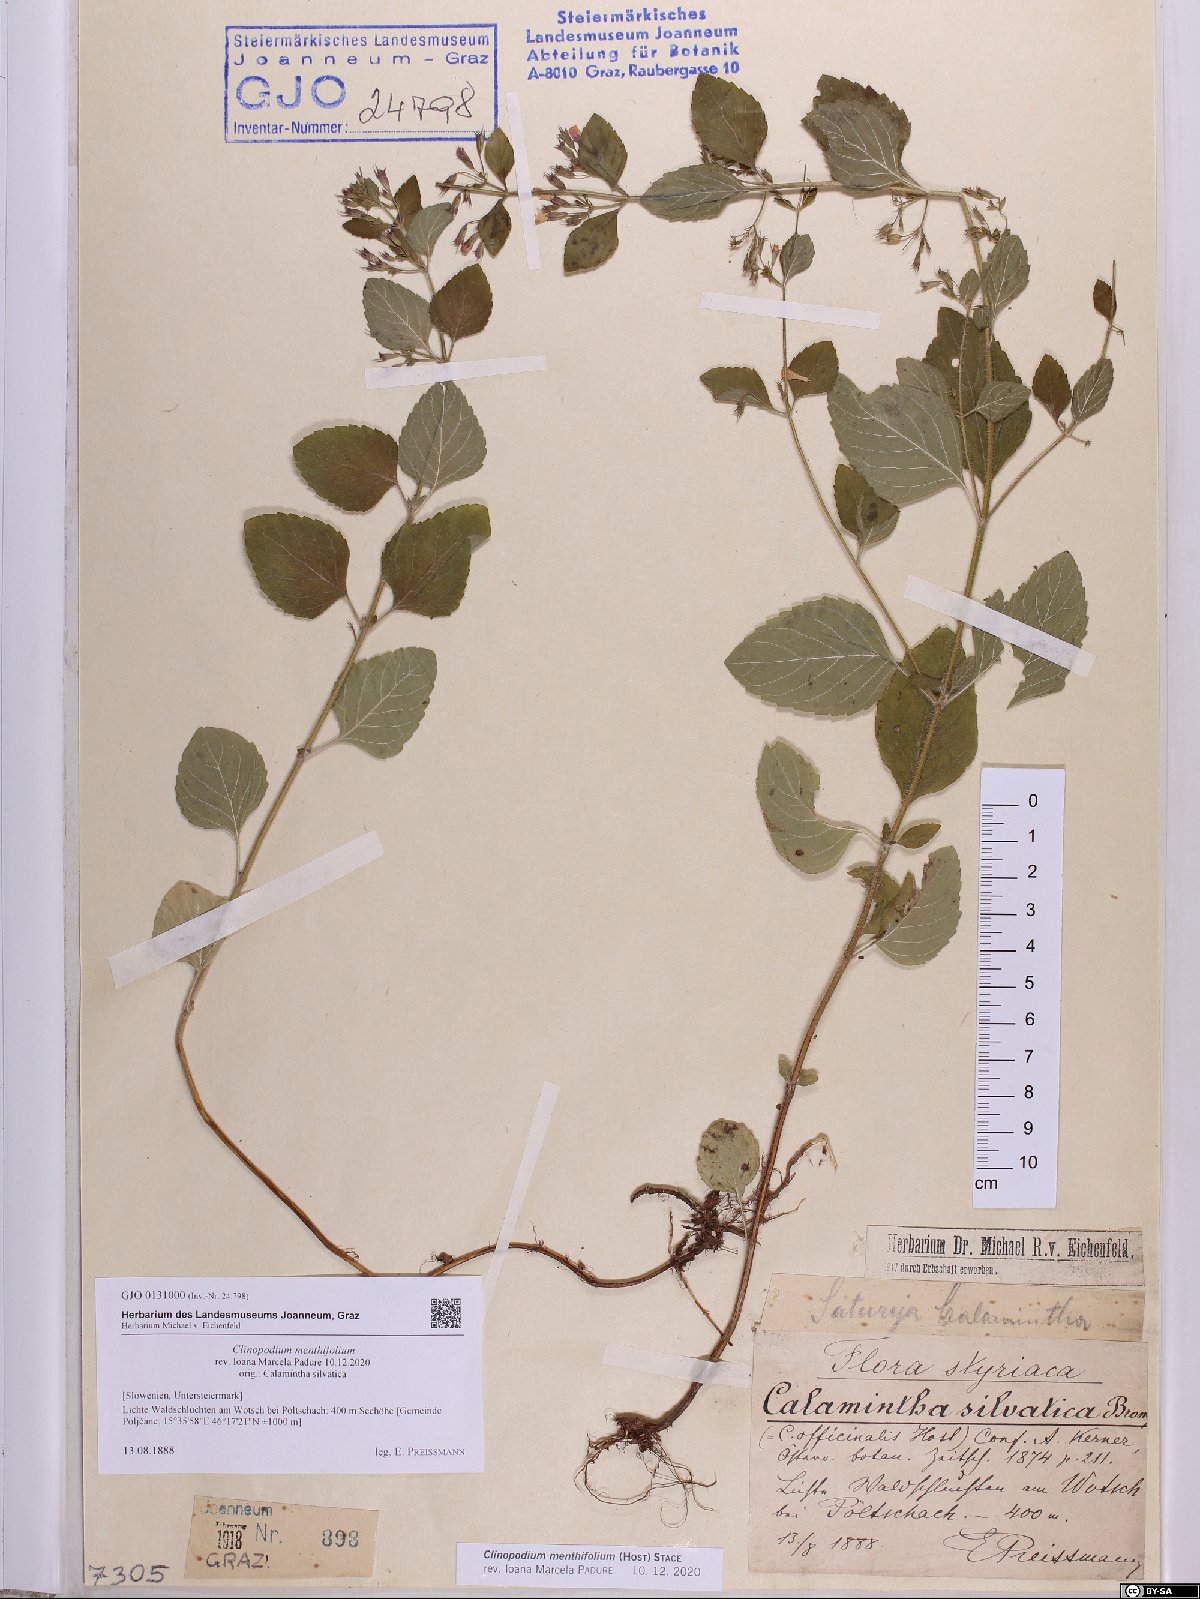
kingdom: Plantae
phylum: Tracheophyta
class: Magnoliopsida
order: Lamiales
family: Lamiaceae
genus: Clinopodium
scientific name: Clinopodium menthifolium
